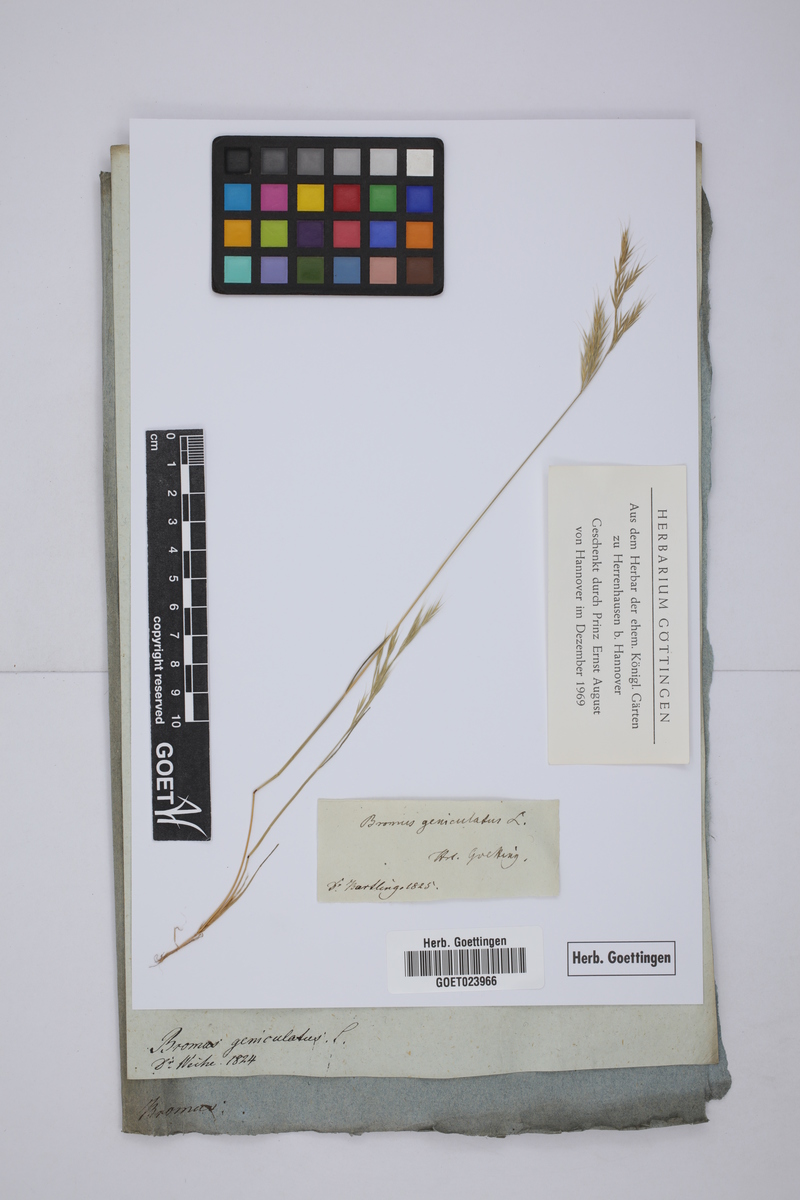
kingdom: Plantae
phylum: Tracheophyta
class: Liliopsida
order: Poales
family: Poaceae
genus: Festuca
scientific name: Festuca geniculata
